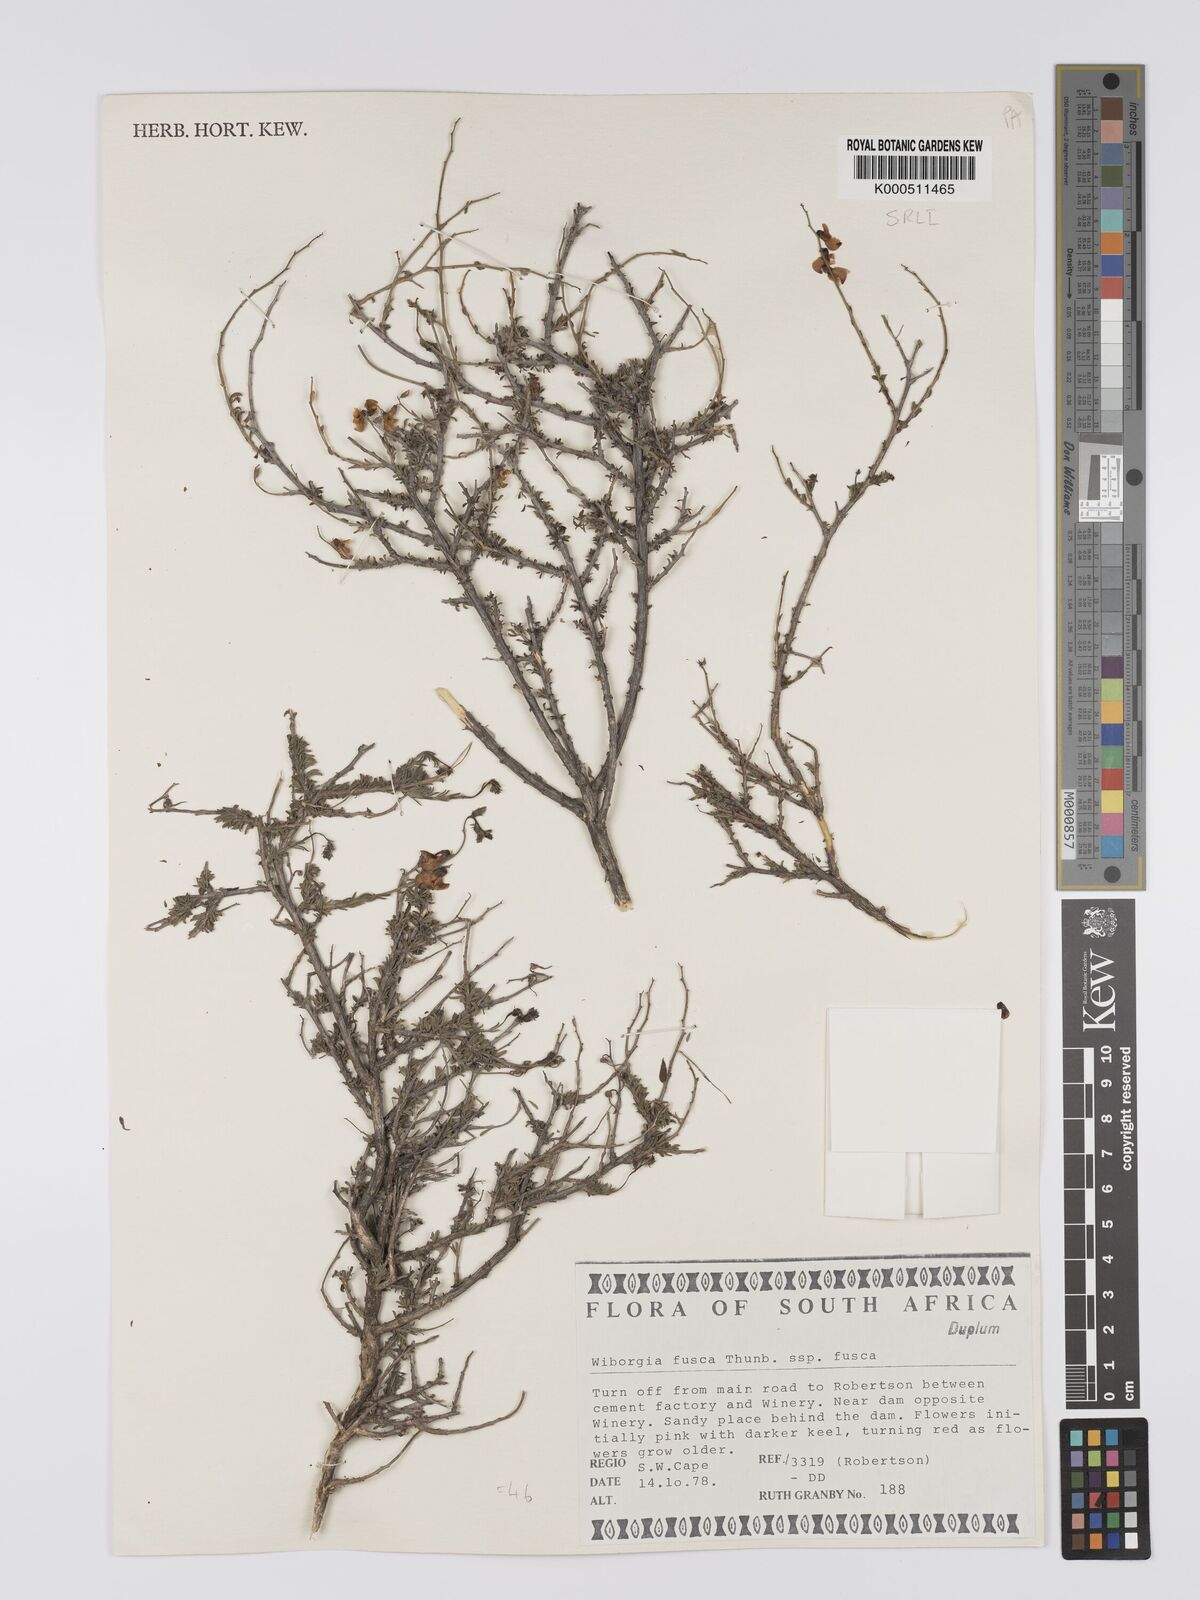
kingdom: Plantae
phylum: Tracheophyta
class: Magnoliopsida
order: Fabales
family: Fabaceae
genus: Wiborgia
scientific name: Wiborgia fusca
